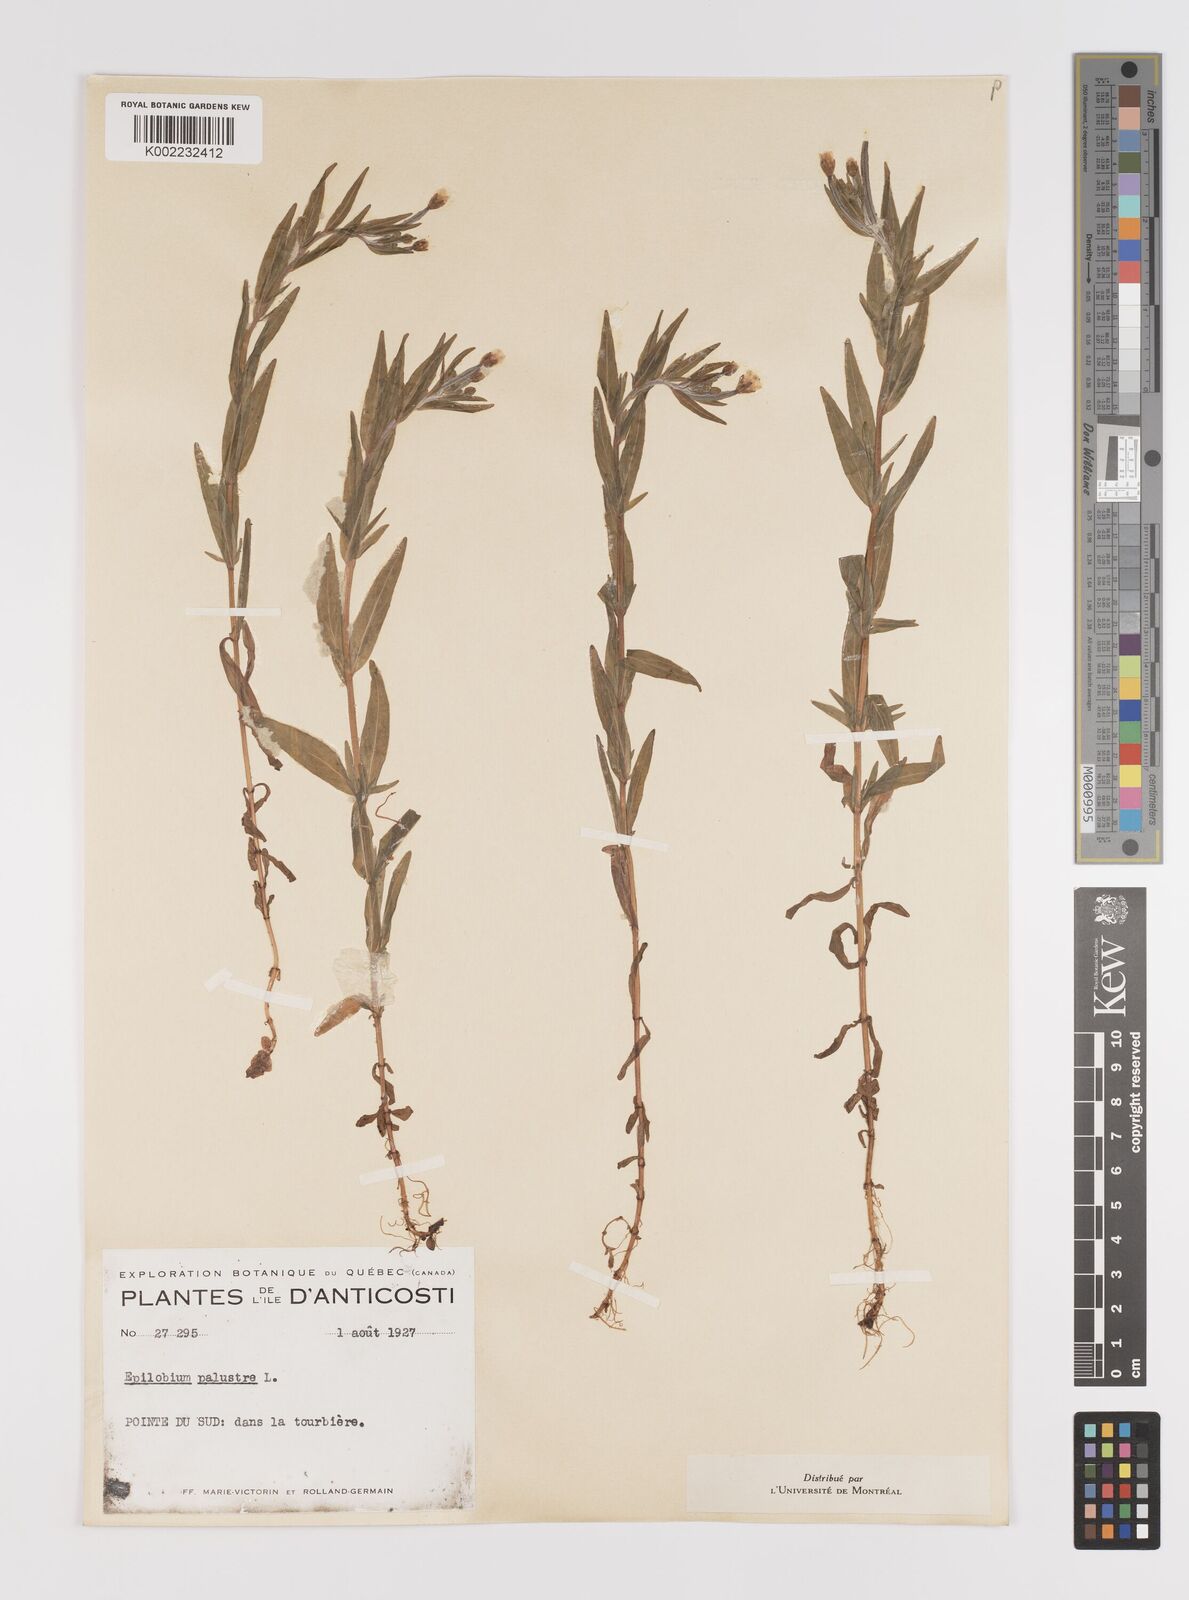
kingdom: Plantae
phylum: Tracheophyta
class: Magnoliopsida
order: Myrtales
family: Onagraceae
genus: Epilobium
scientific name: Epilobium palustre
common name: Marsh willowherb
